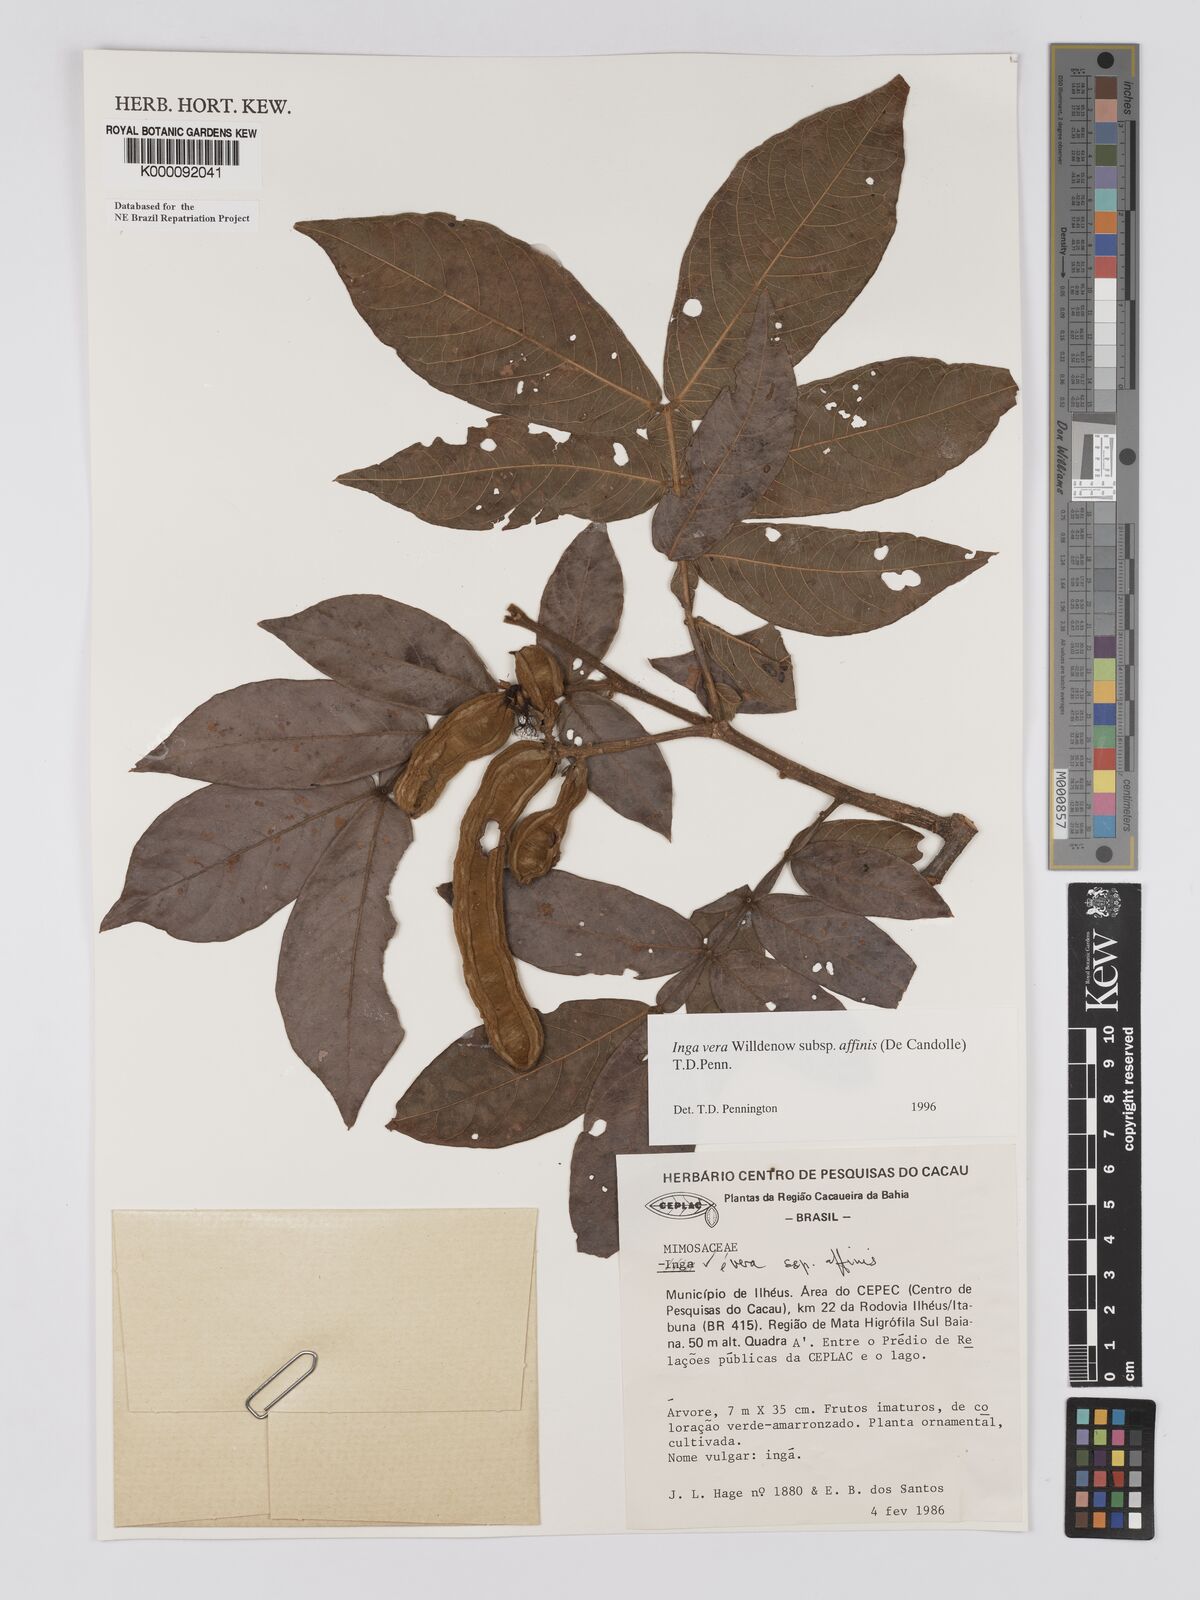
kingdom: Plantae
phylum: Tracheophyta
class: Magnoliopsida
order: Fabales
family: Fabaceae
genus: Inga
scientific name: Inga affinis
